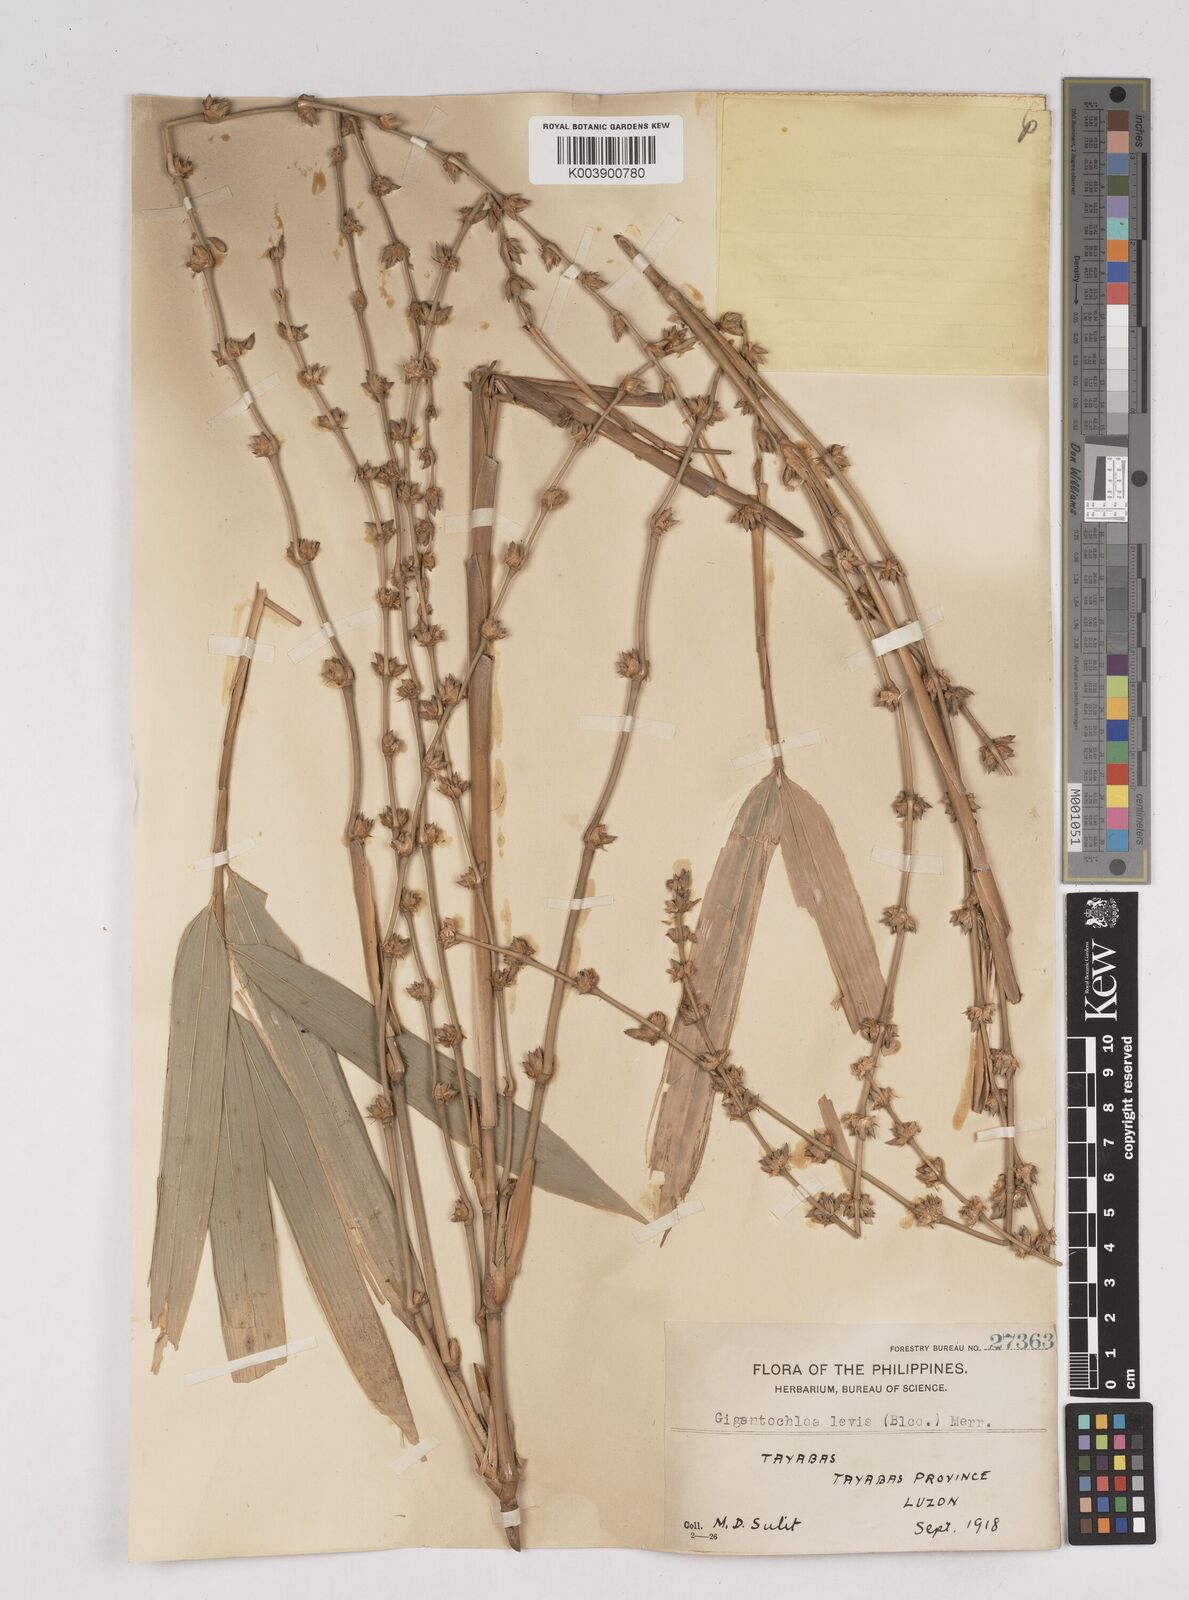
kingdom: Plantae
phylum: Tracheophyta
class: Liliopsida
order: Poales
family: Poaceae
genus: Gigantochloa
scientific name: Gigantochloa levis
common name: Smooth-shoot gigantochloa
